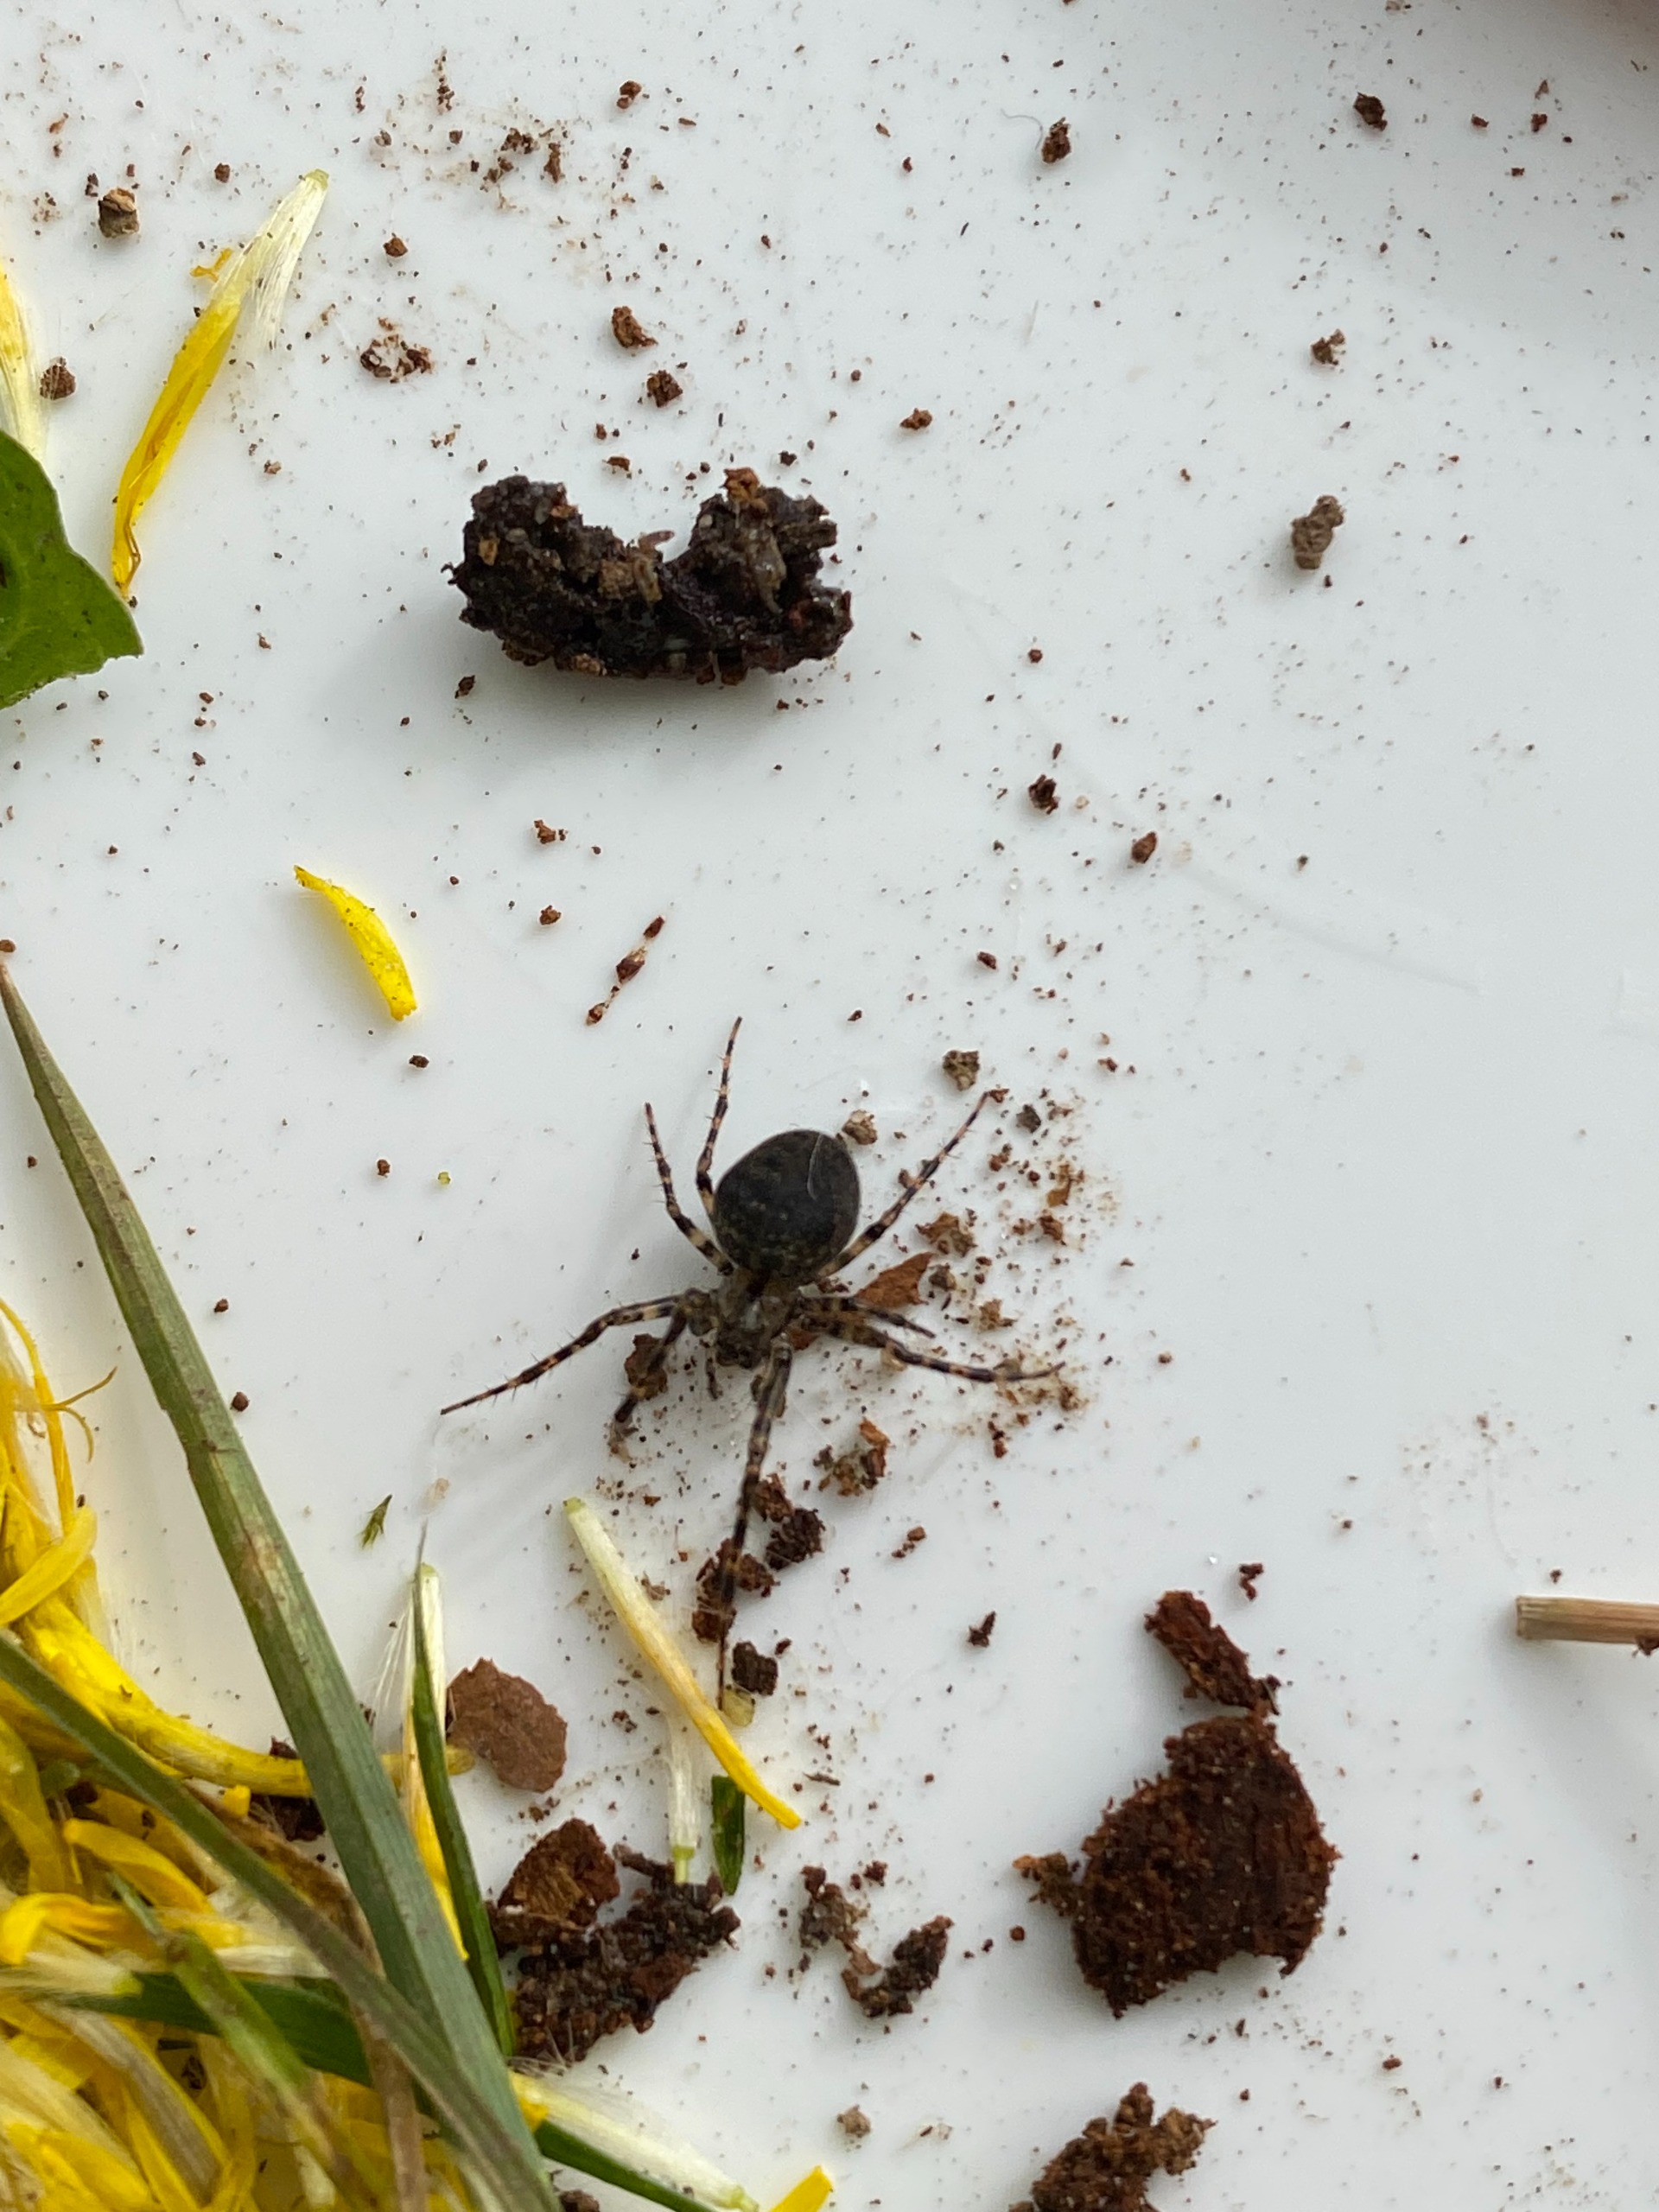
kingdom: Animalia
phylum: Arthropoda
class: Arachnida
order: Araneae
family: Araneidae
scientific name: Araneidae
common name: Hjulspindere
